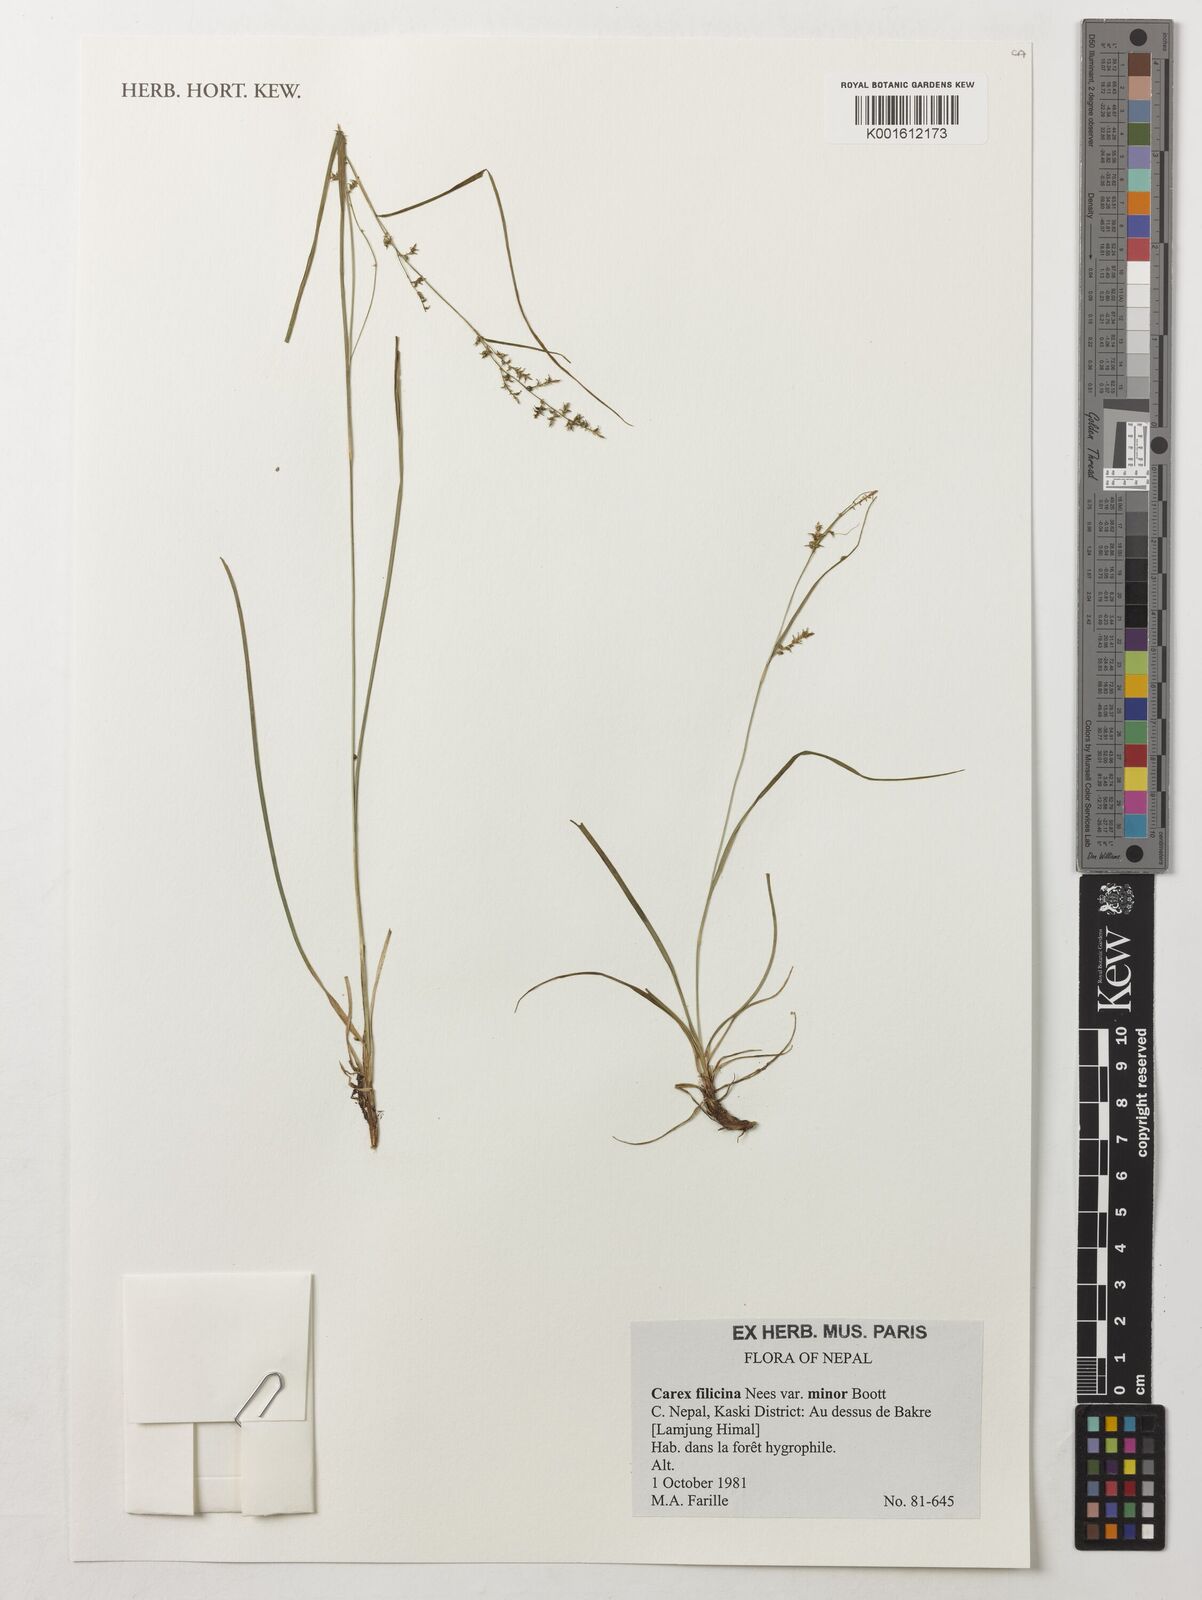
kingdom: Plantae
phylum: Tracheophyta
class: Liliopsida
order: Poales
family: Cyperaceae
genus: Carex
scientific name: Carex filicina
